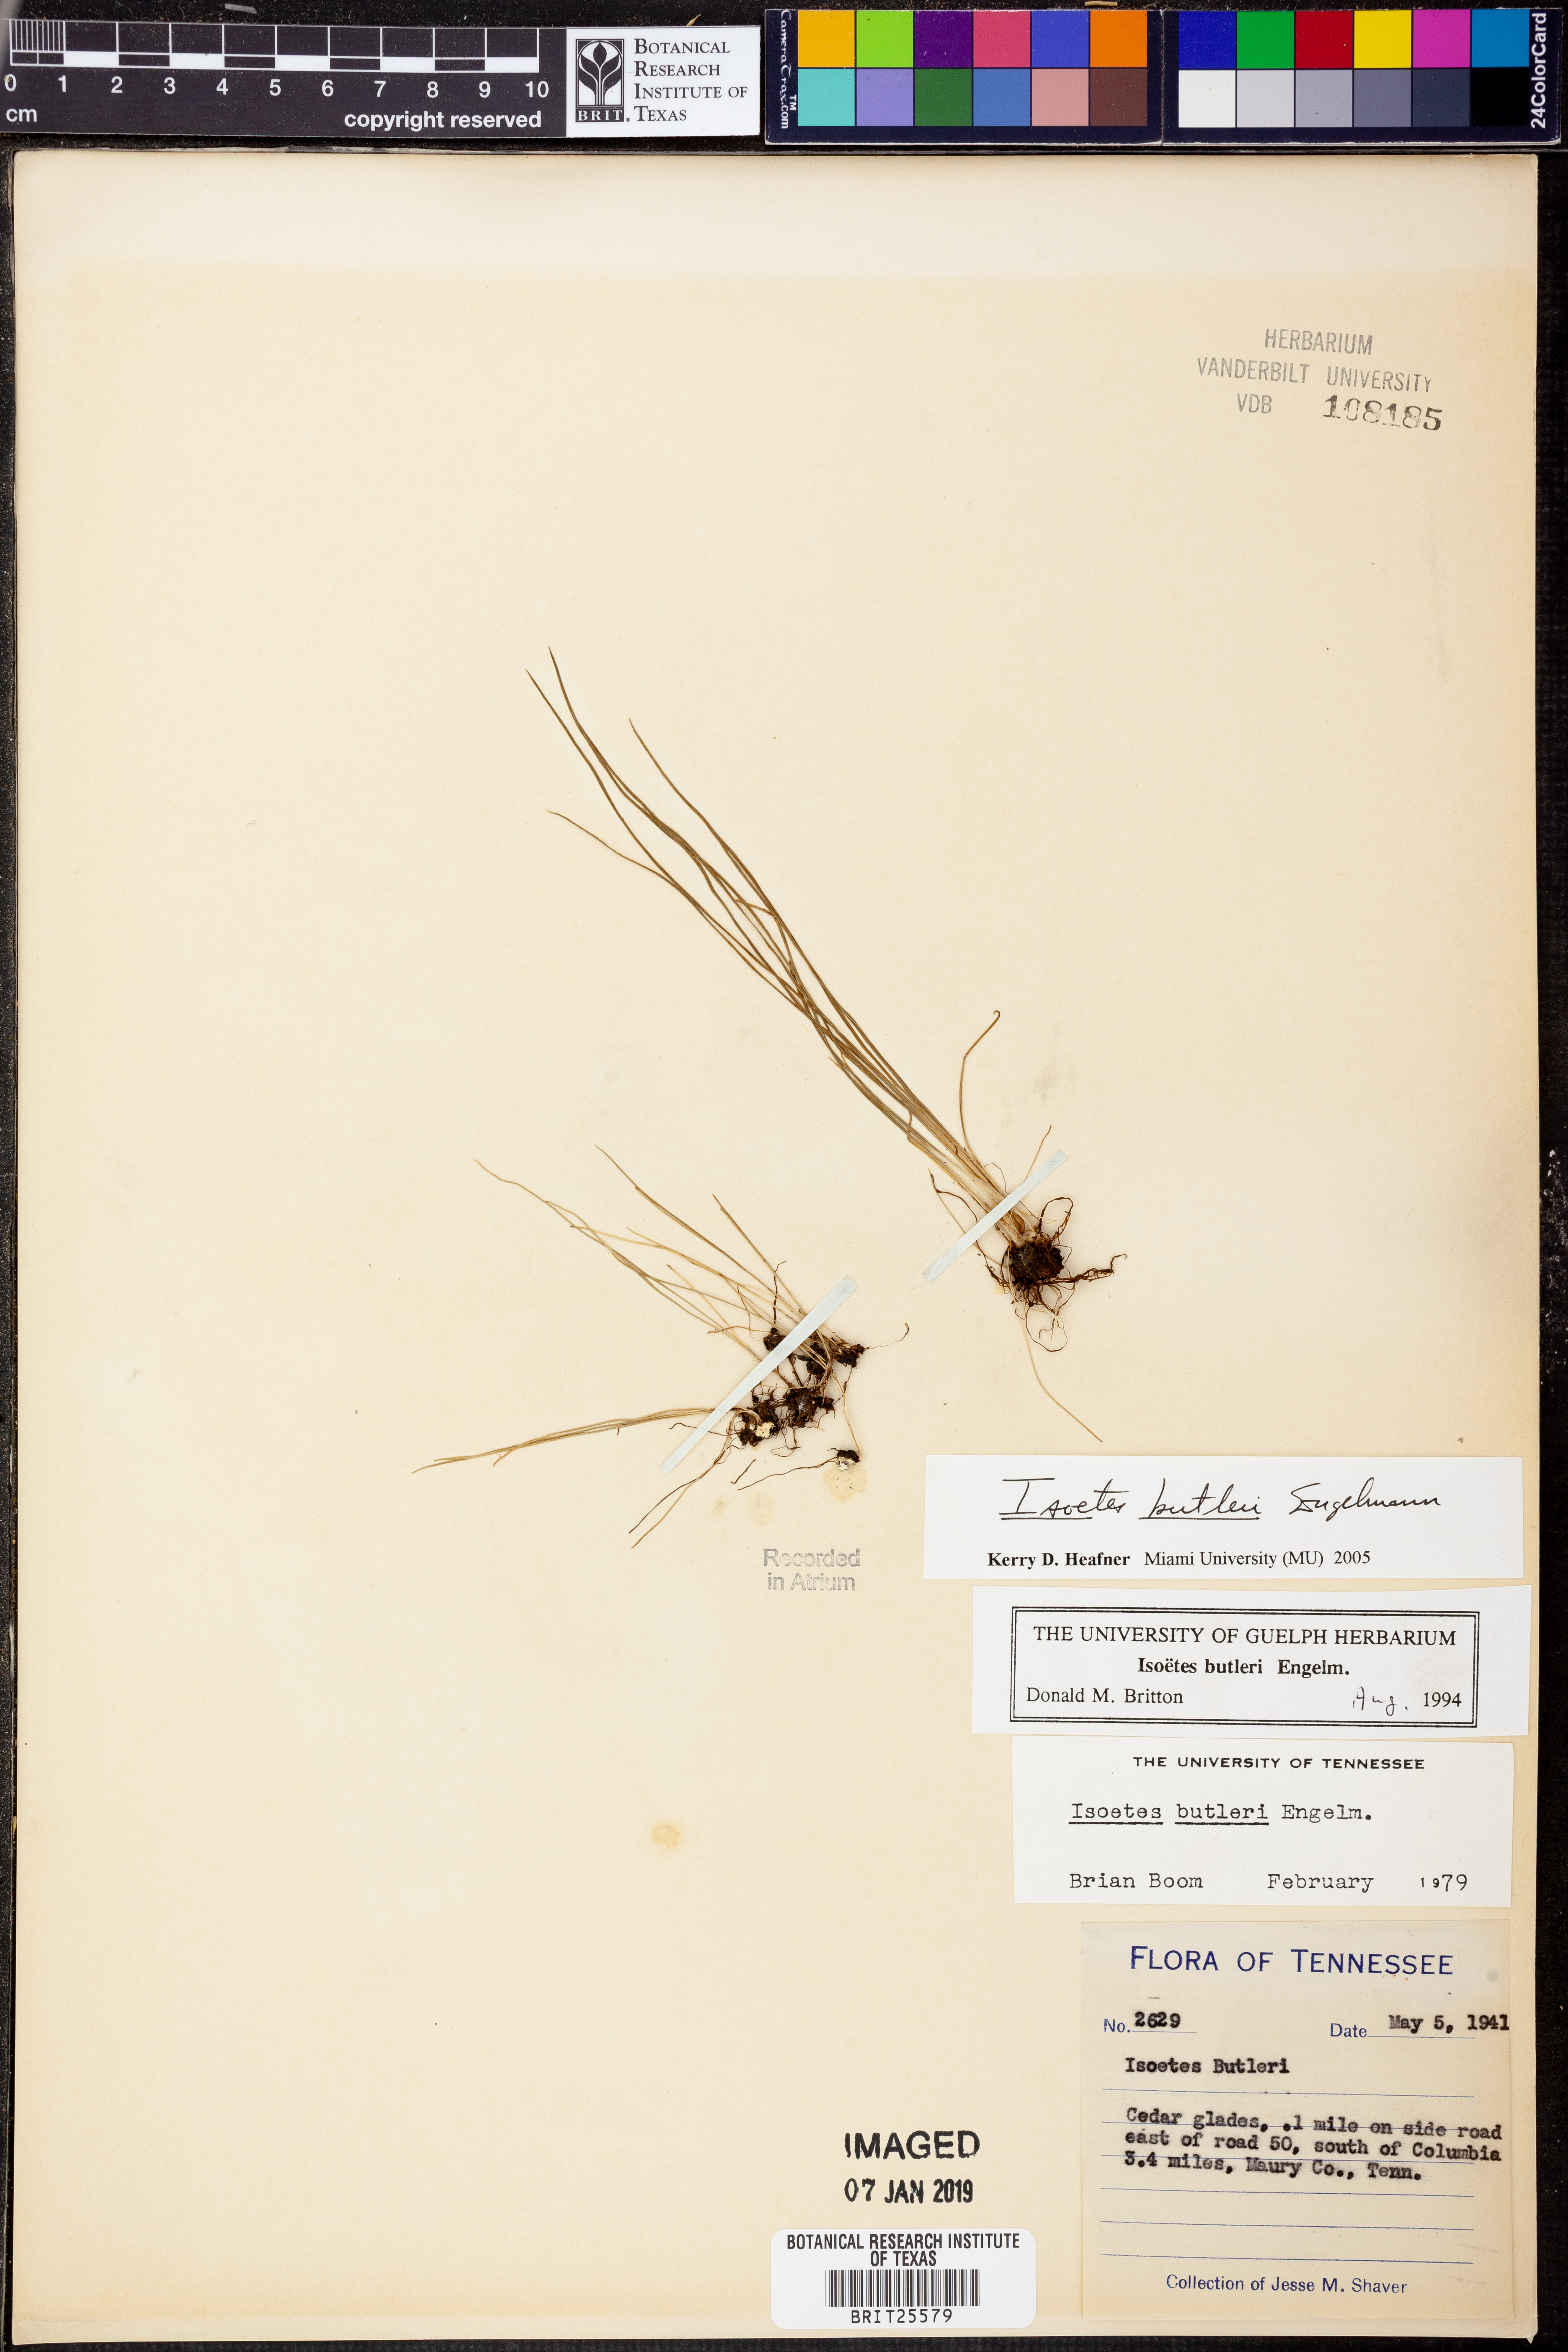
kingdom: Plantae
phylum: Tracheophyta
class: Lycopodiopsida
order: Isoetales
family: Isoetaceae
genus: Isoetes
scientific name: Isoetes butleri
